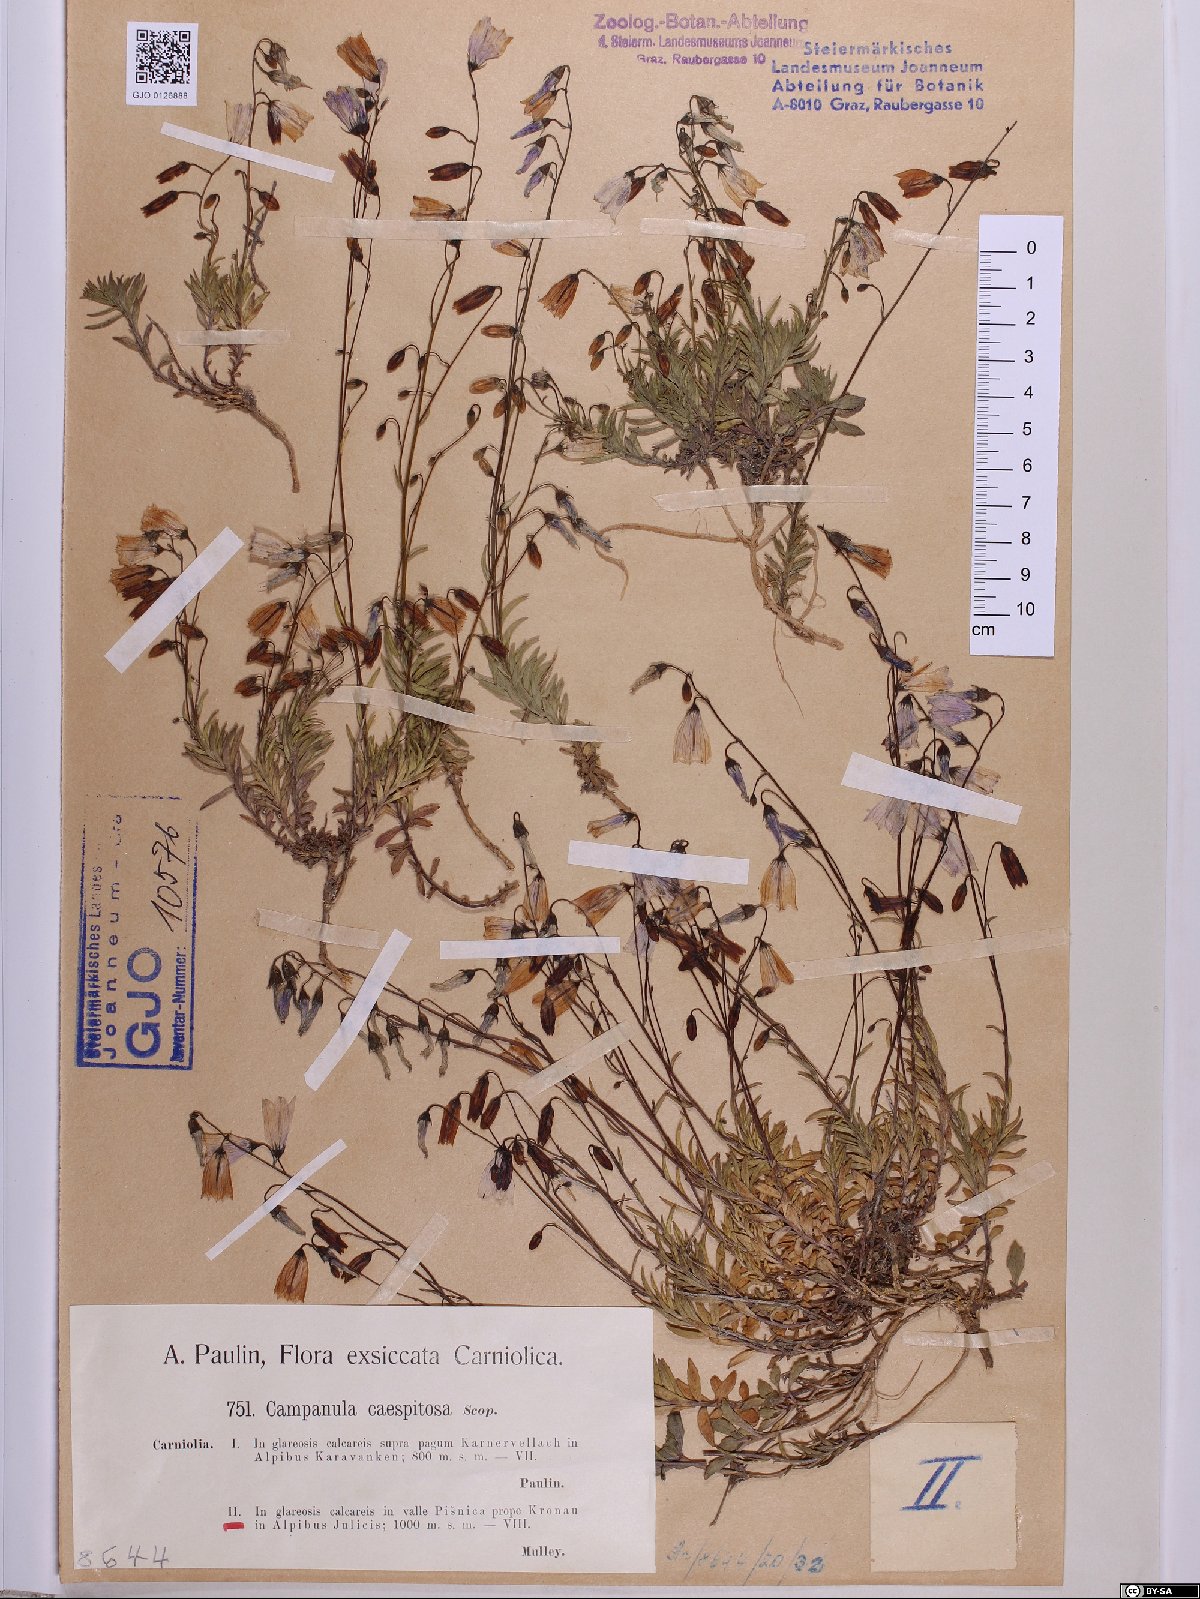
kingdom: Plantae
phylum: Tracheophyta
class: Magnoliopsida
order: Asterales
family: Campanulaceae
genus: Campanula
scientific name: Campanula cespitosa
